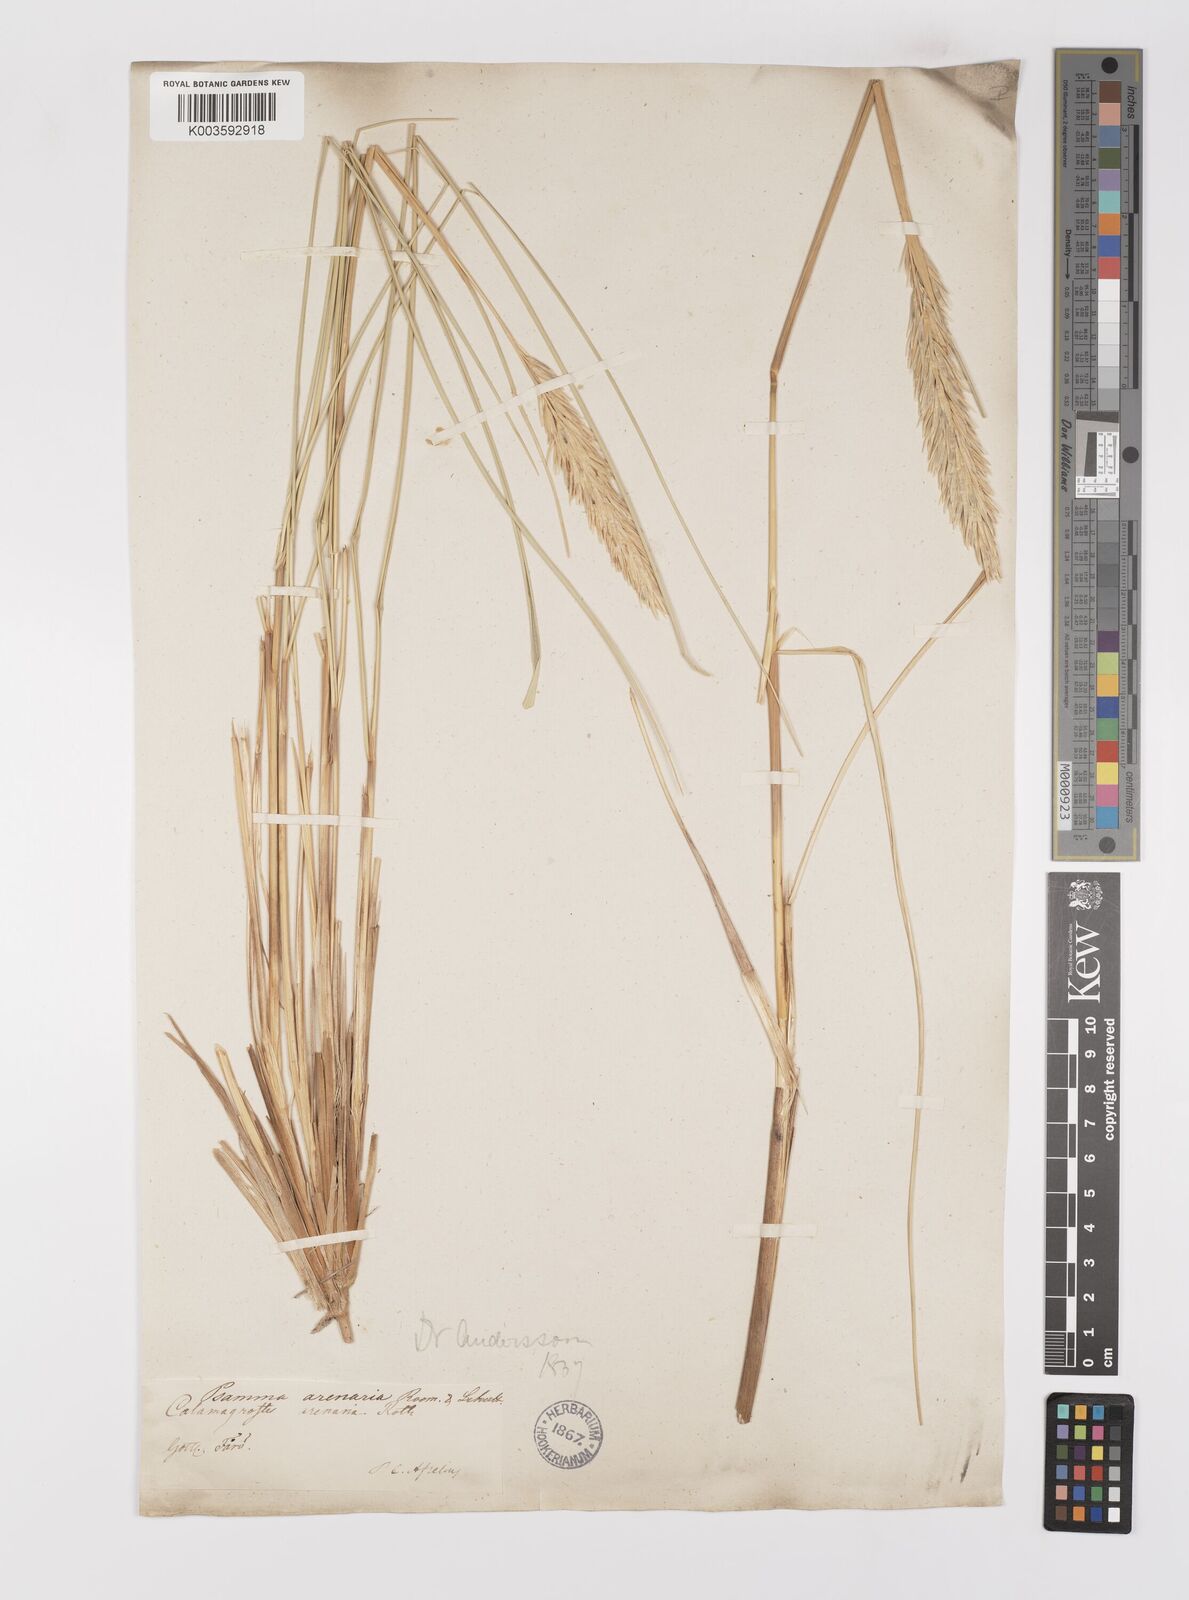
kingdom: Plantae
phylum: Tracheophyta
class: Liliopsida
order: Poales
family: Poaceae
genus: Calamagrostis
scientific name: Calamagrostis arenaria
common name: European beachgrass
